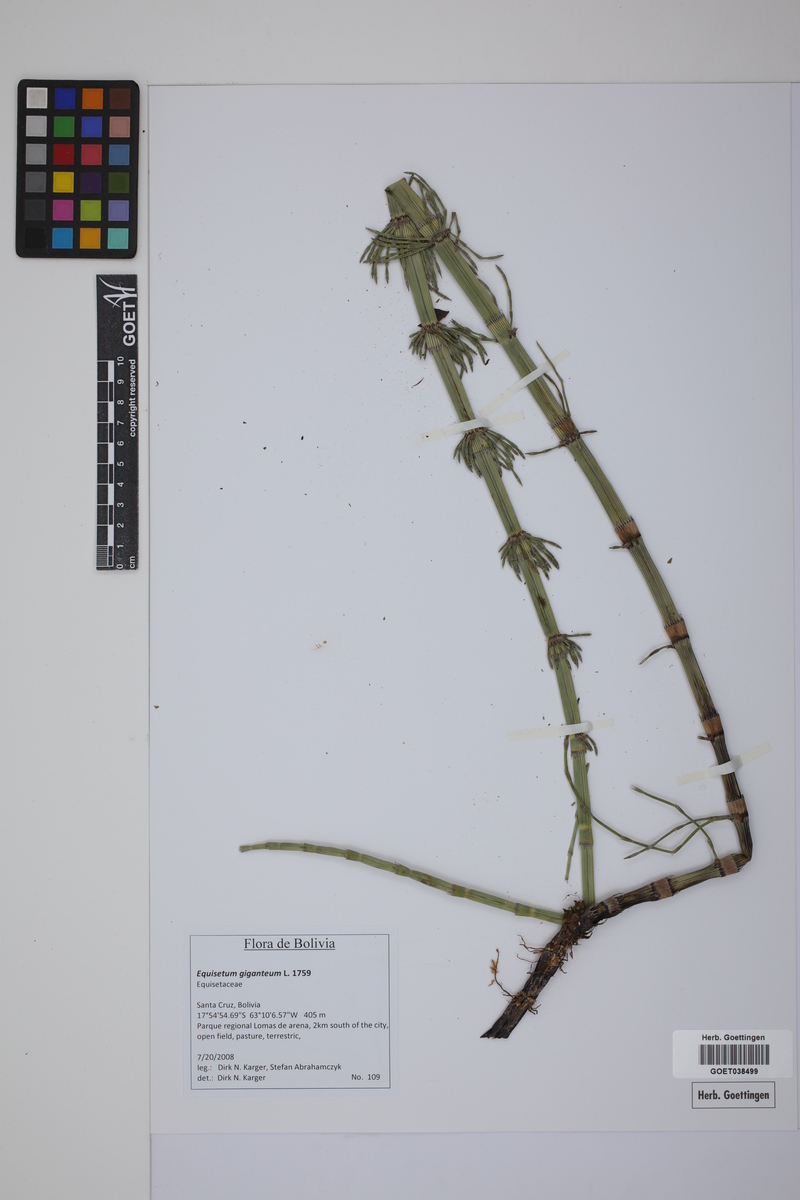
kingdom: Plantae
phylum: Tracheophyta
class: Polypodiopsida
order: Equisetales
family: Equisetaceae
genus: Equisetum
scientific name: Equisetum giganteum
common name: Giant horsetail
